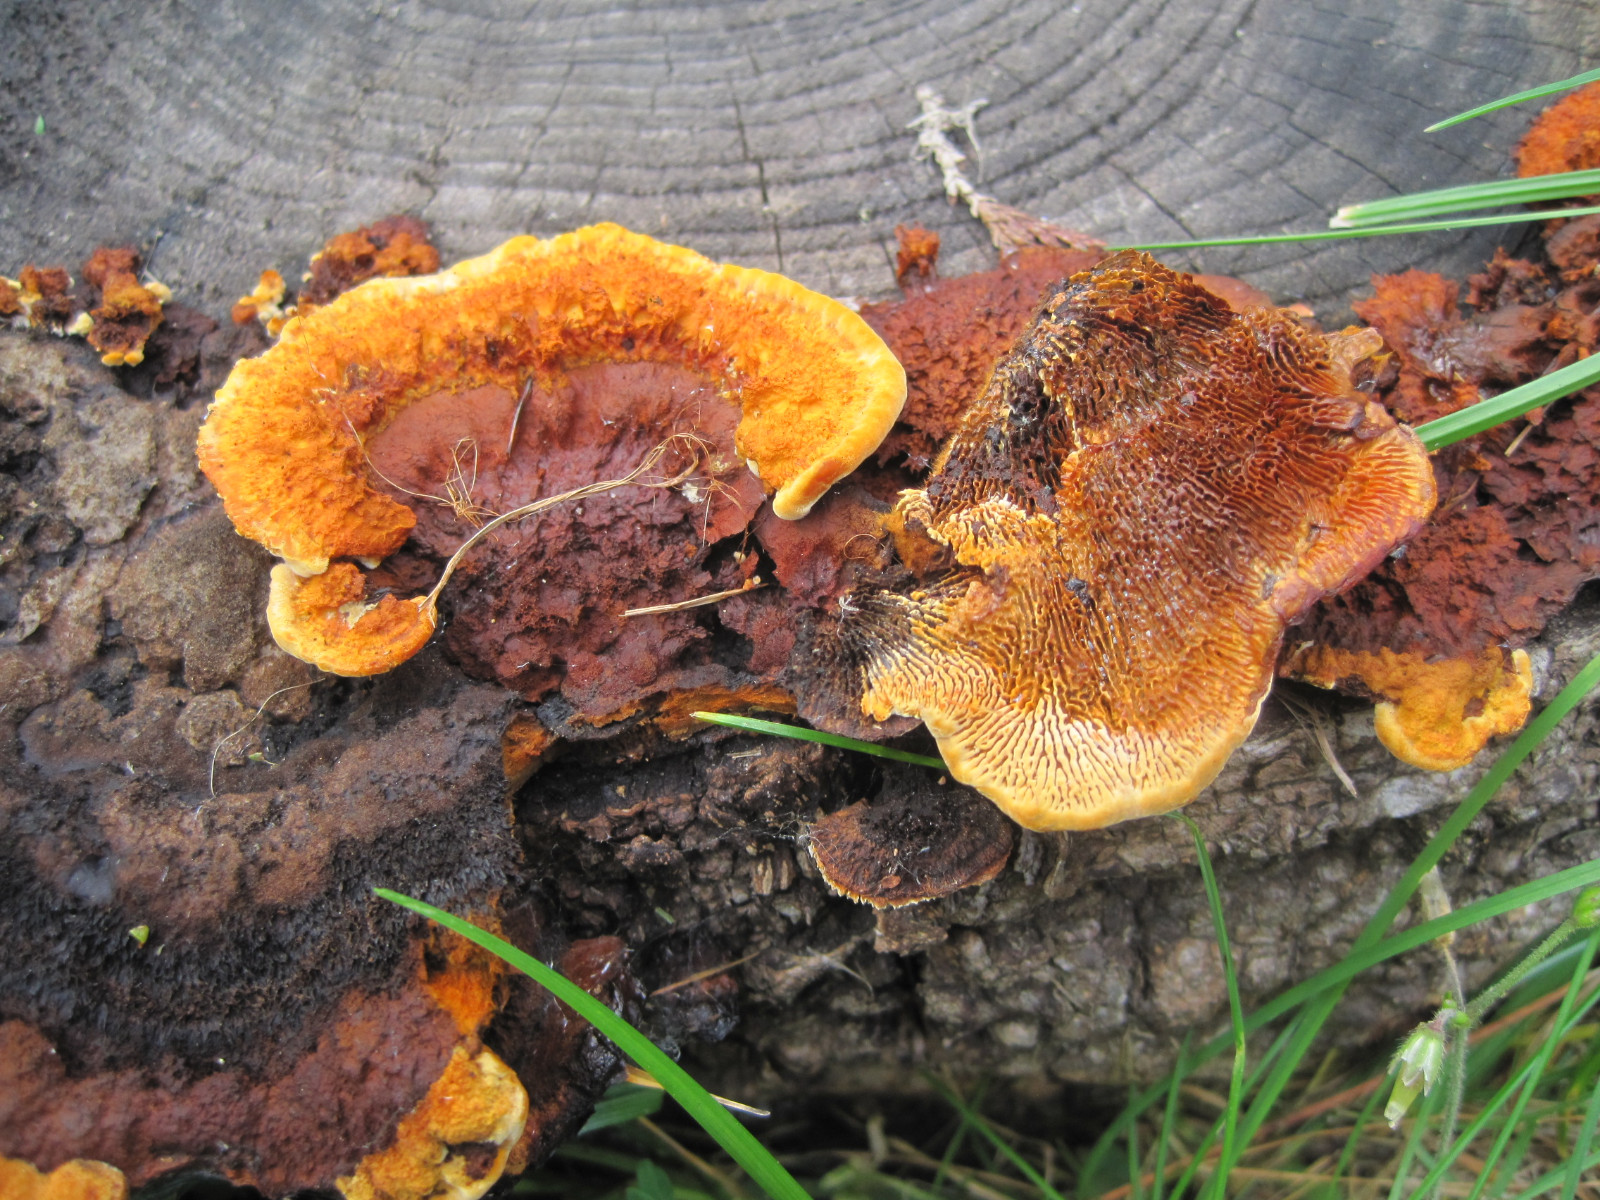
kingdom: Fungi
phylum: Basidiomycota
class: Agaricomycetes
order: Gloeophyllales
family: Gloeophyllaceae
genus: Gloeophyllum
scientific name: Gloeophyllum sepiarium
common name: fyrre-korkhat
